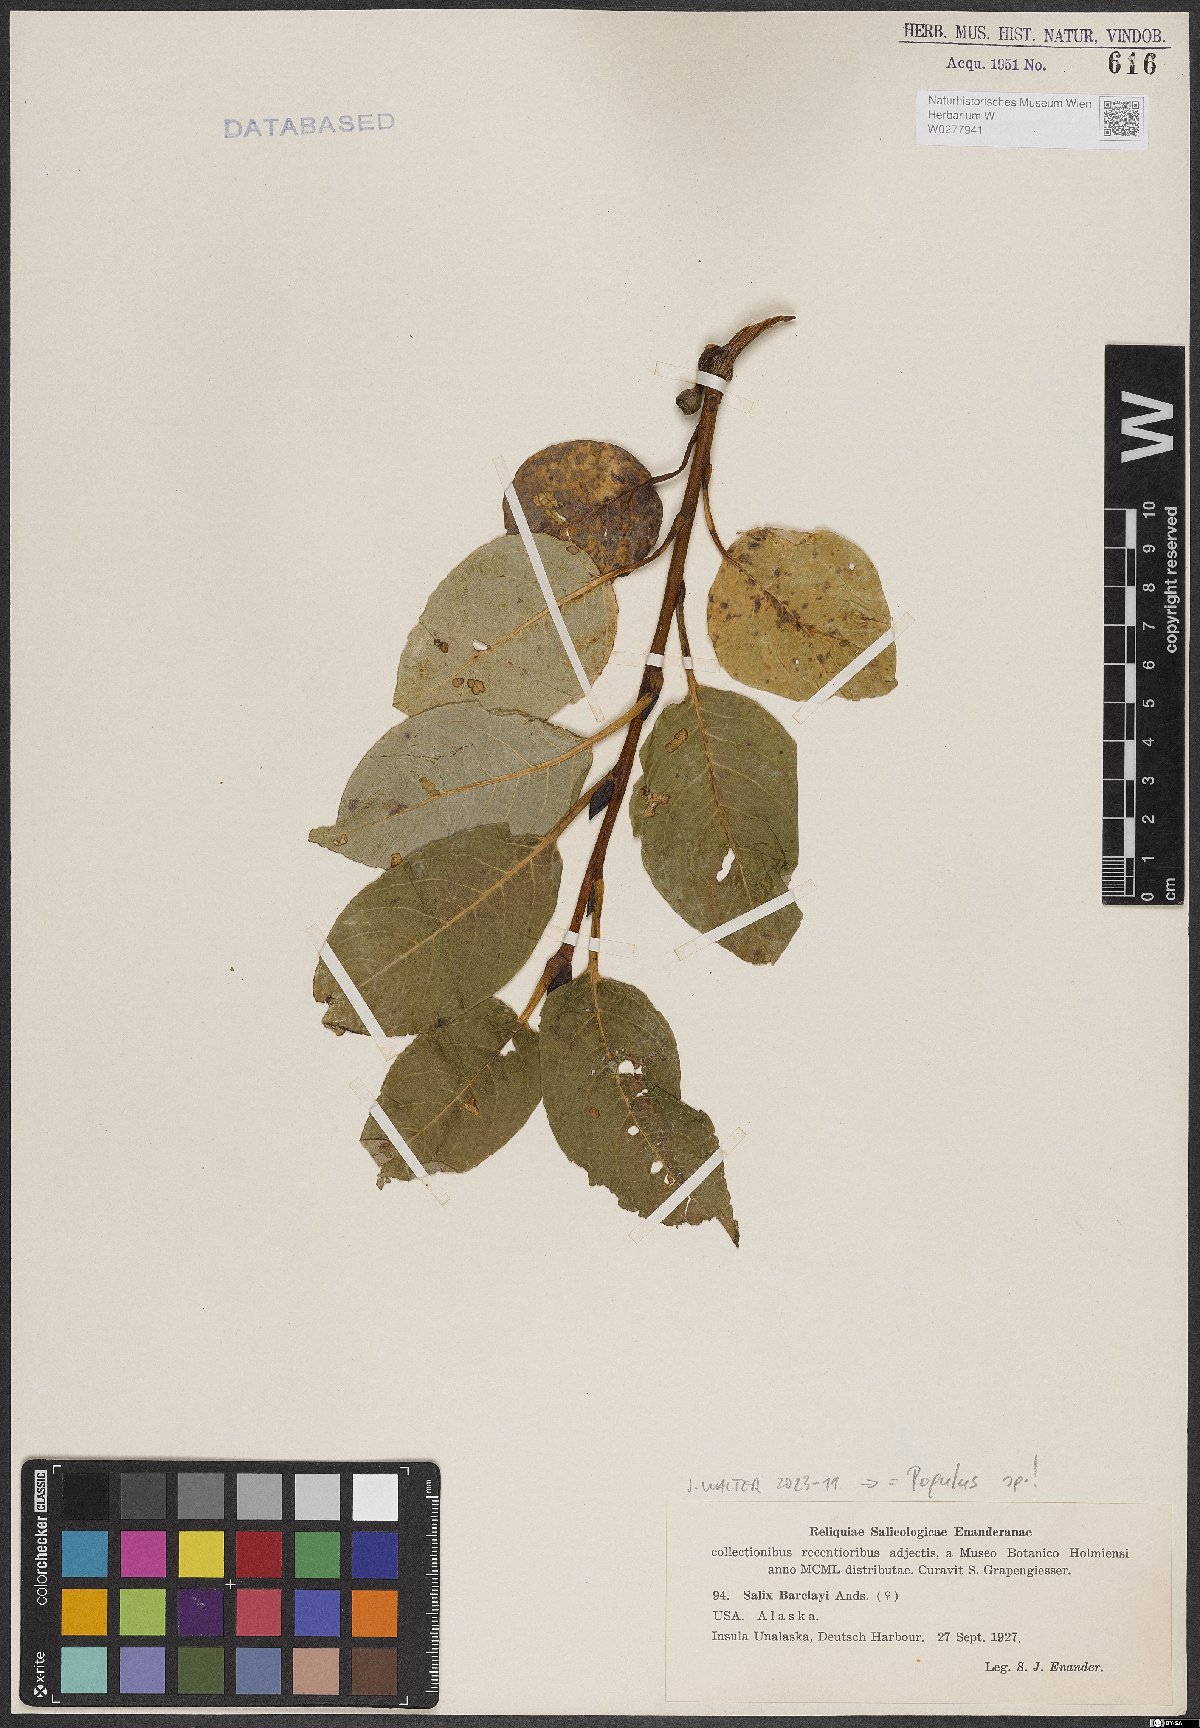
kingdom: Plantae
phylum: Tracheophyta
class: Magnoliopsida
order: Malpighiales
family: Salicaceae
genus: Salix
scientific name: Salix barclayi
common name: Mountain willow
